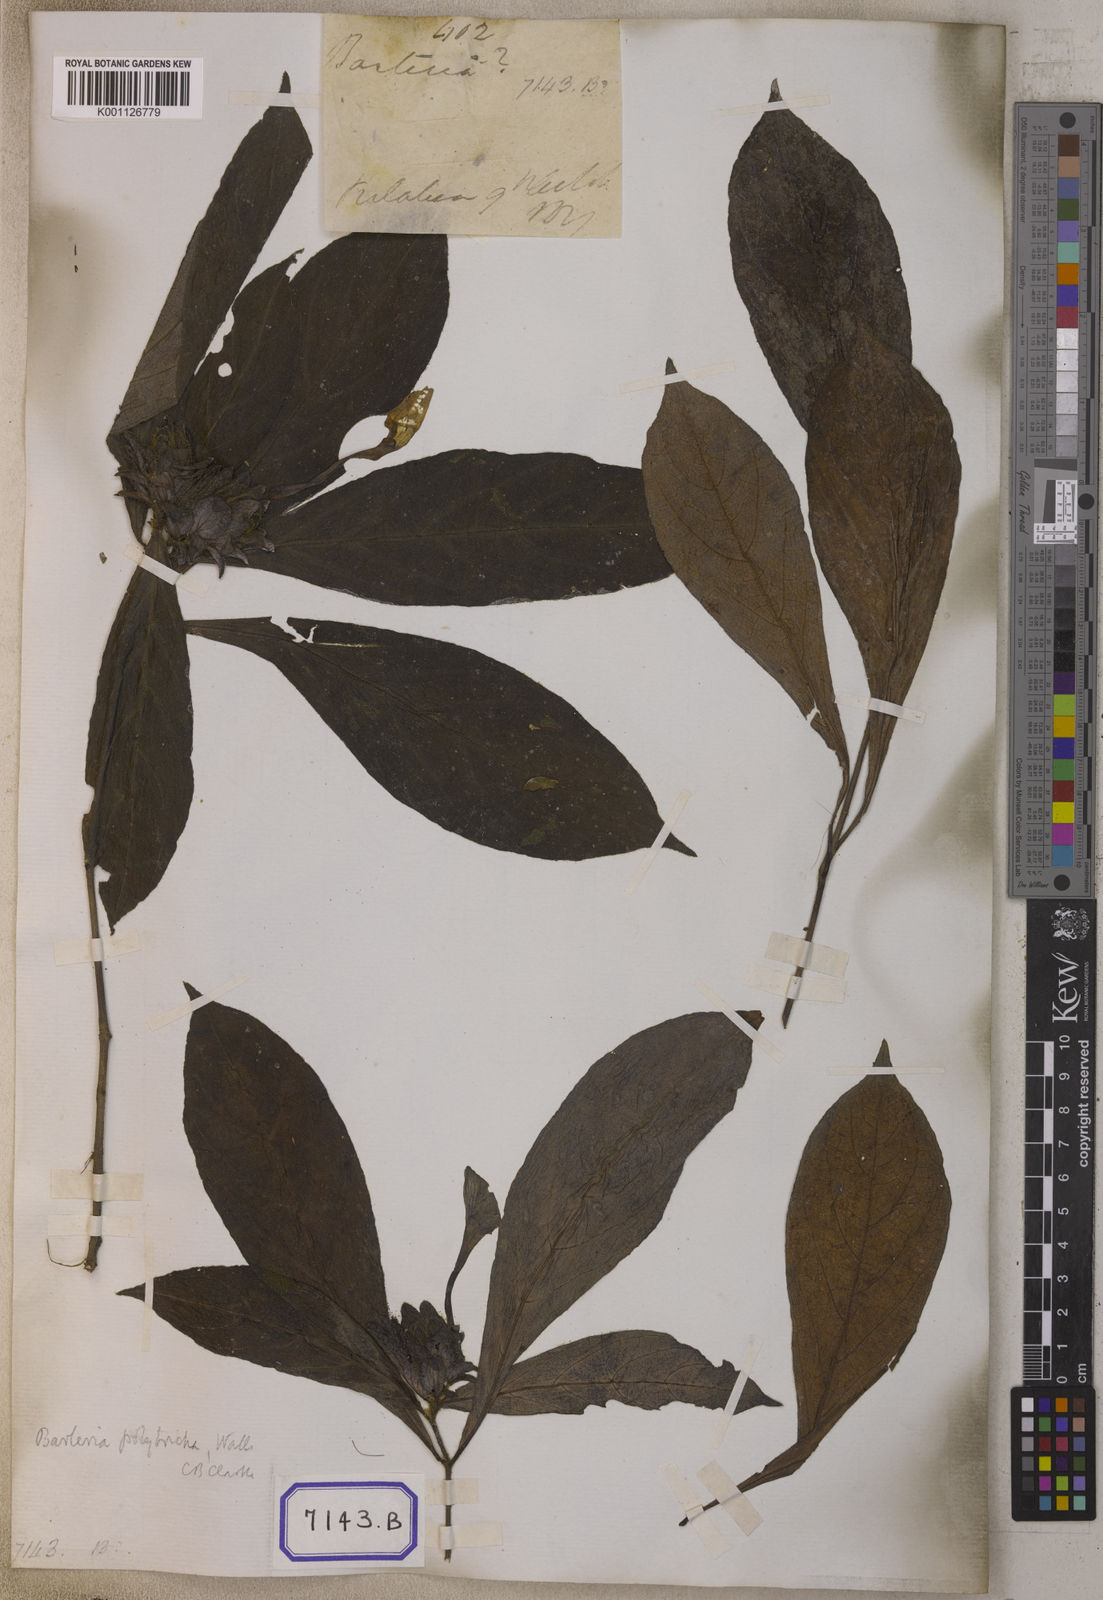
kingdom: Plantae
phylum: Tracheophyta
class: Magnoliopsida
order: Lamiales
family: Acanthaceae
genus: Barleria
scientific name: Barleria strigosa
